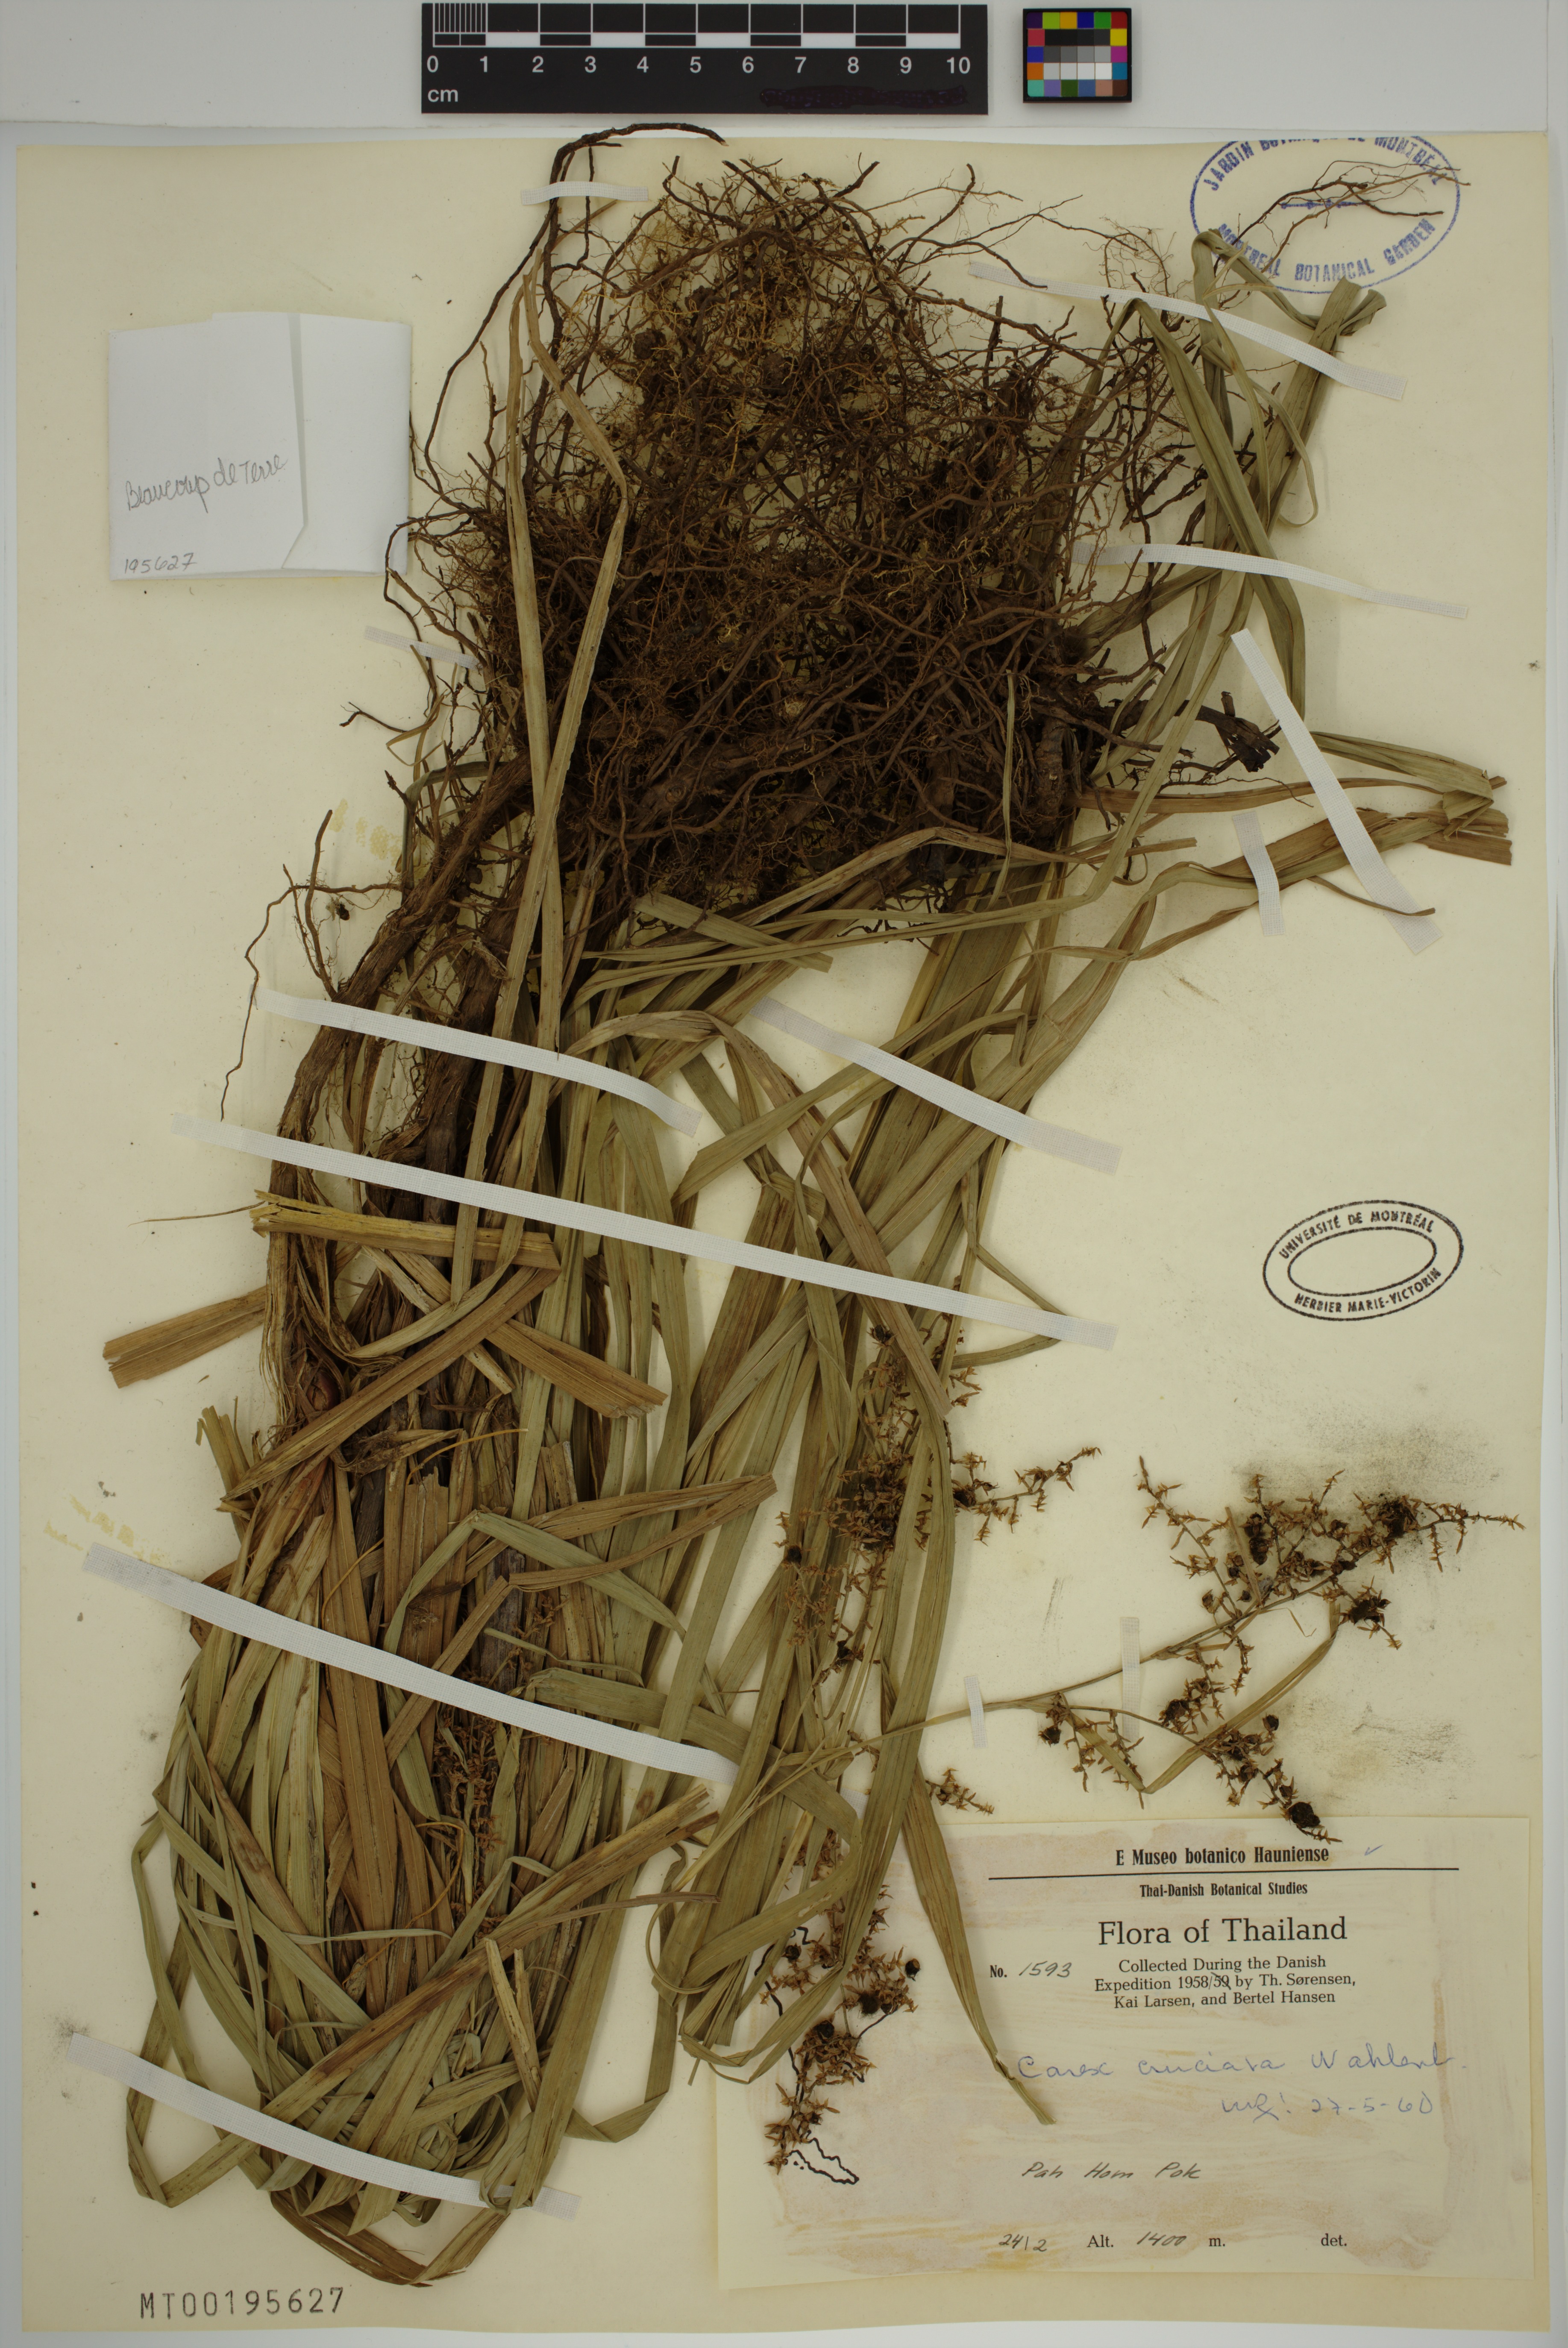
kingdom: Plantae
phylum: Tracheophyta
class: Liliopsida
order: Poales
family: Cyperaceae
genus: Carex
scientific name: Carex cruciata
